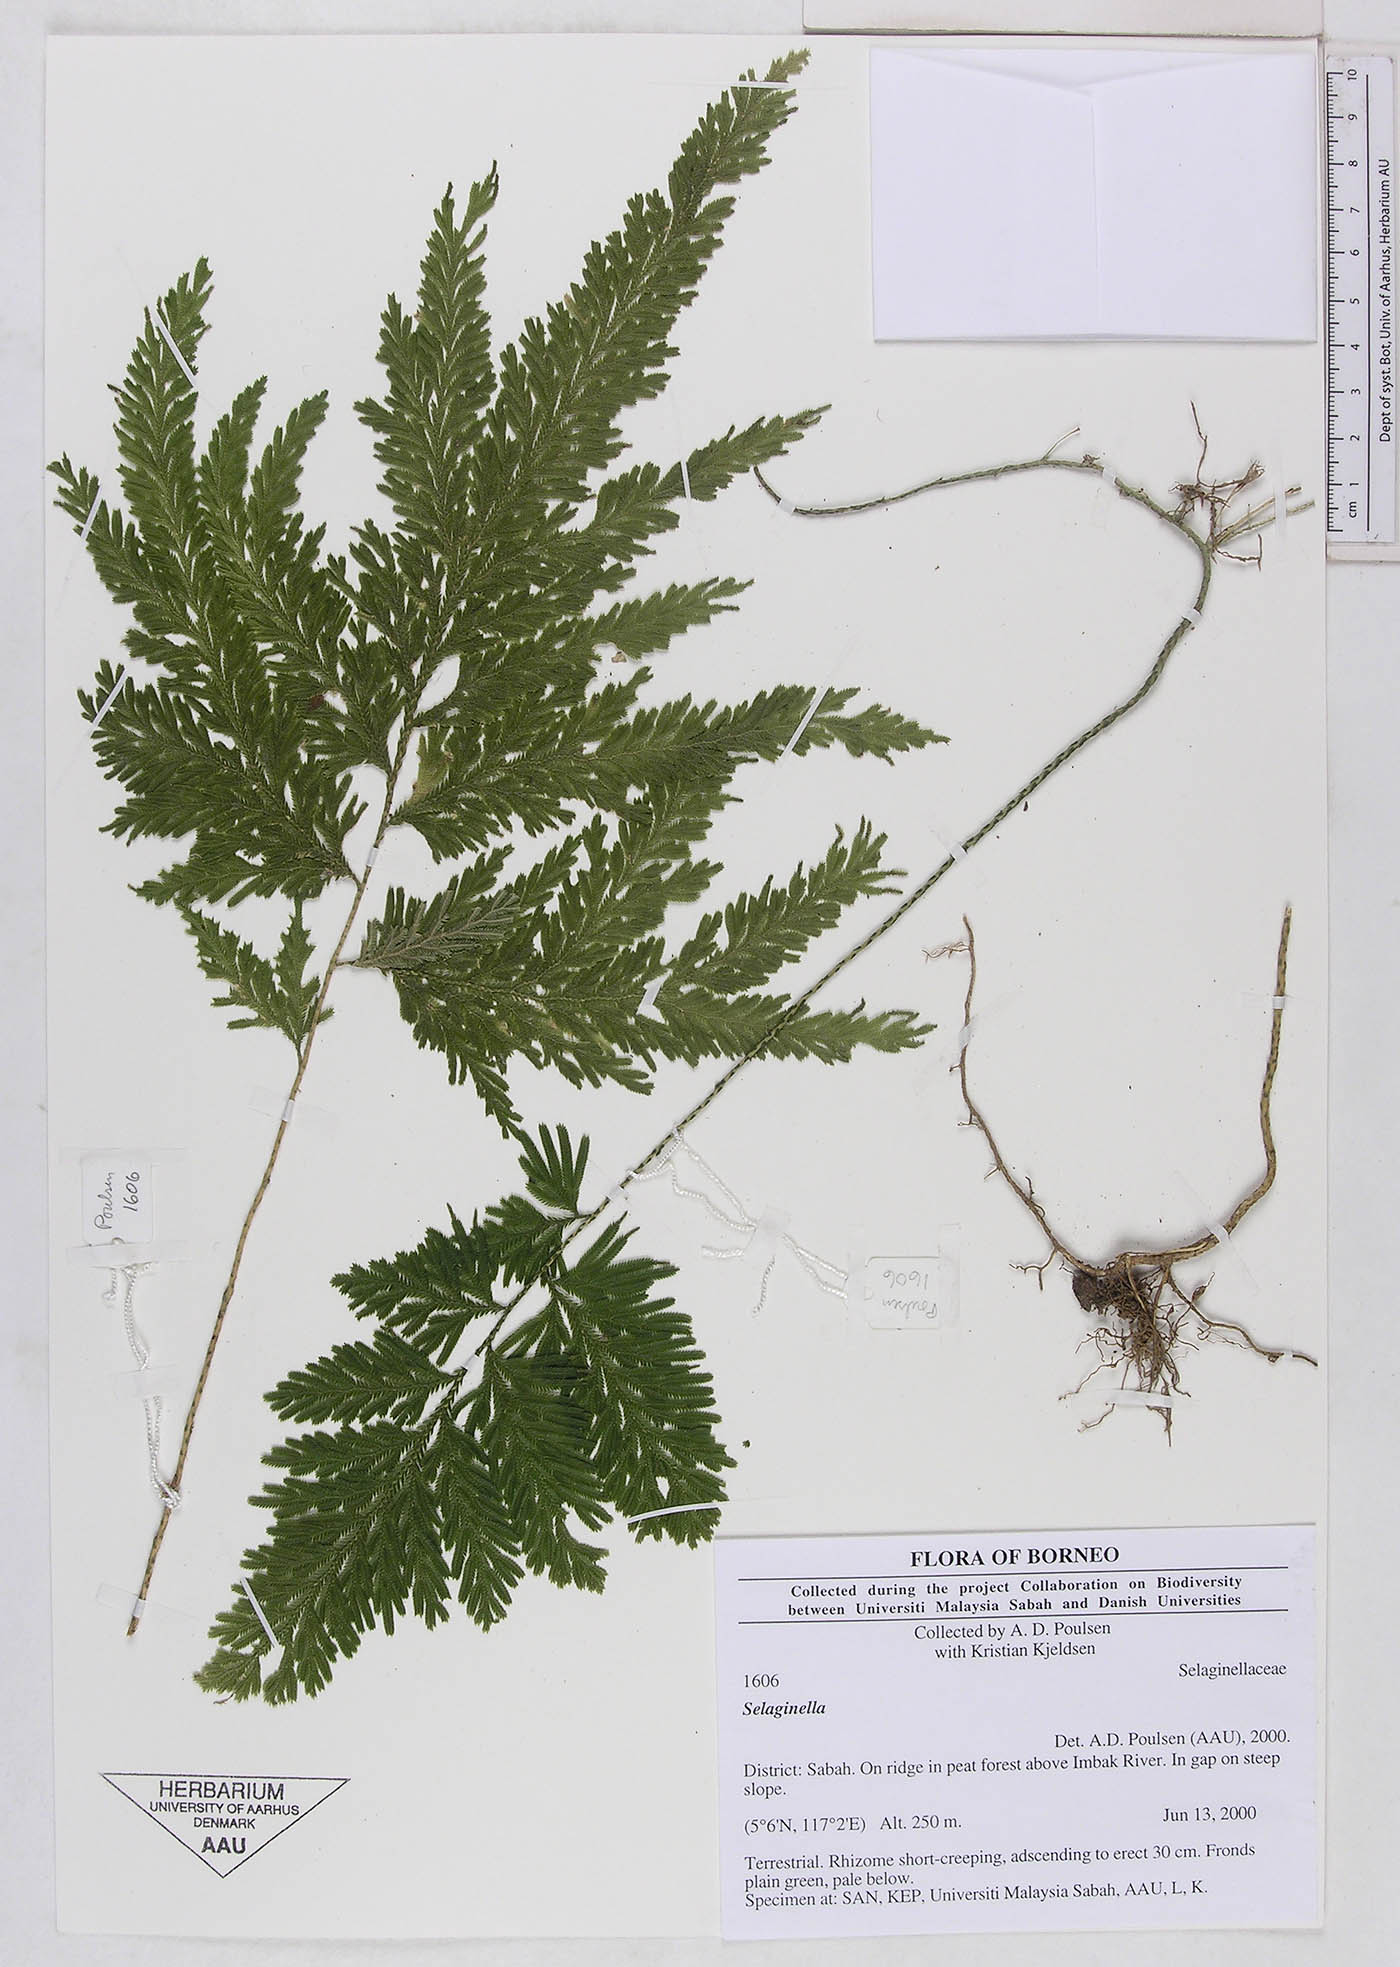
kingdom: Plantae
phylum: Tracheophyta
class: Lycopodiopsida
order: Selaginellales
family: Selaginellaceae
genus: Selaginella
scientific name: Selaginella
